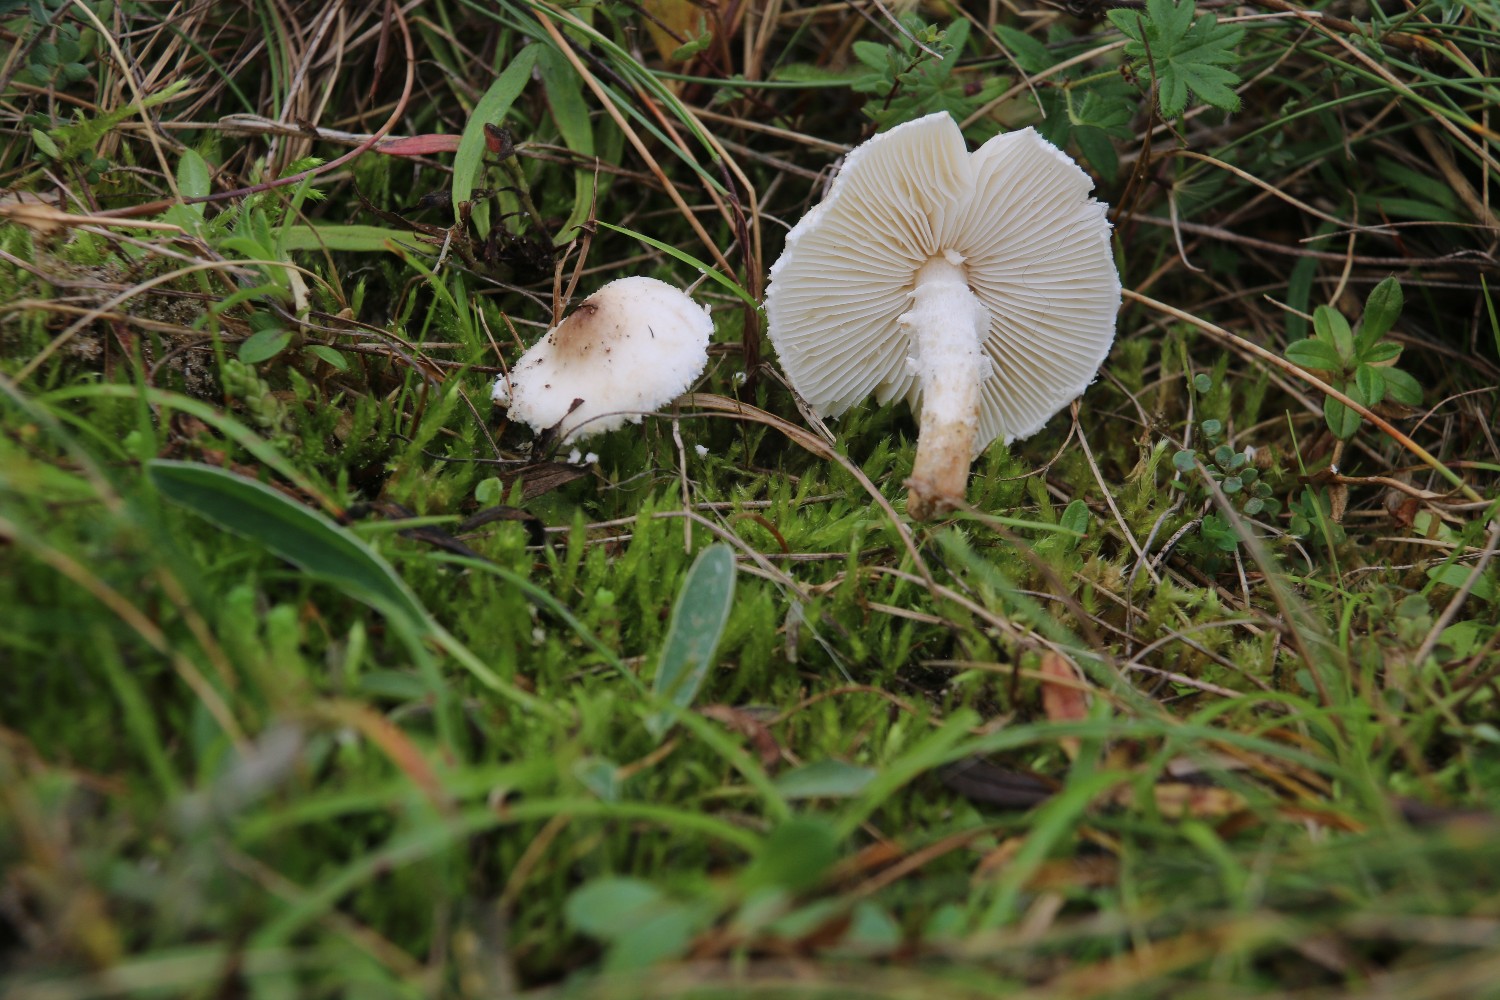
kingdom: Fungi
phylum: Basidiomycota
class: Agaricomycetes
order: Agaricales
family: Agaricaceae
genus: Lepiota
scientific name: Lepiota erminea
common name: hvid parasolhat
